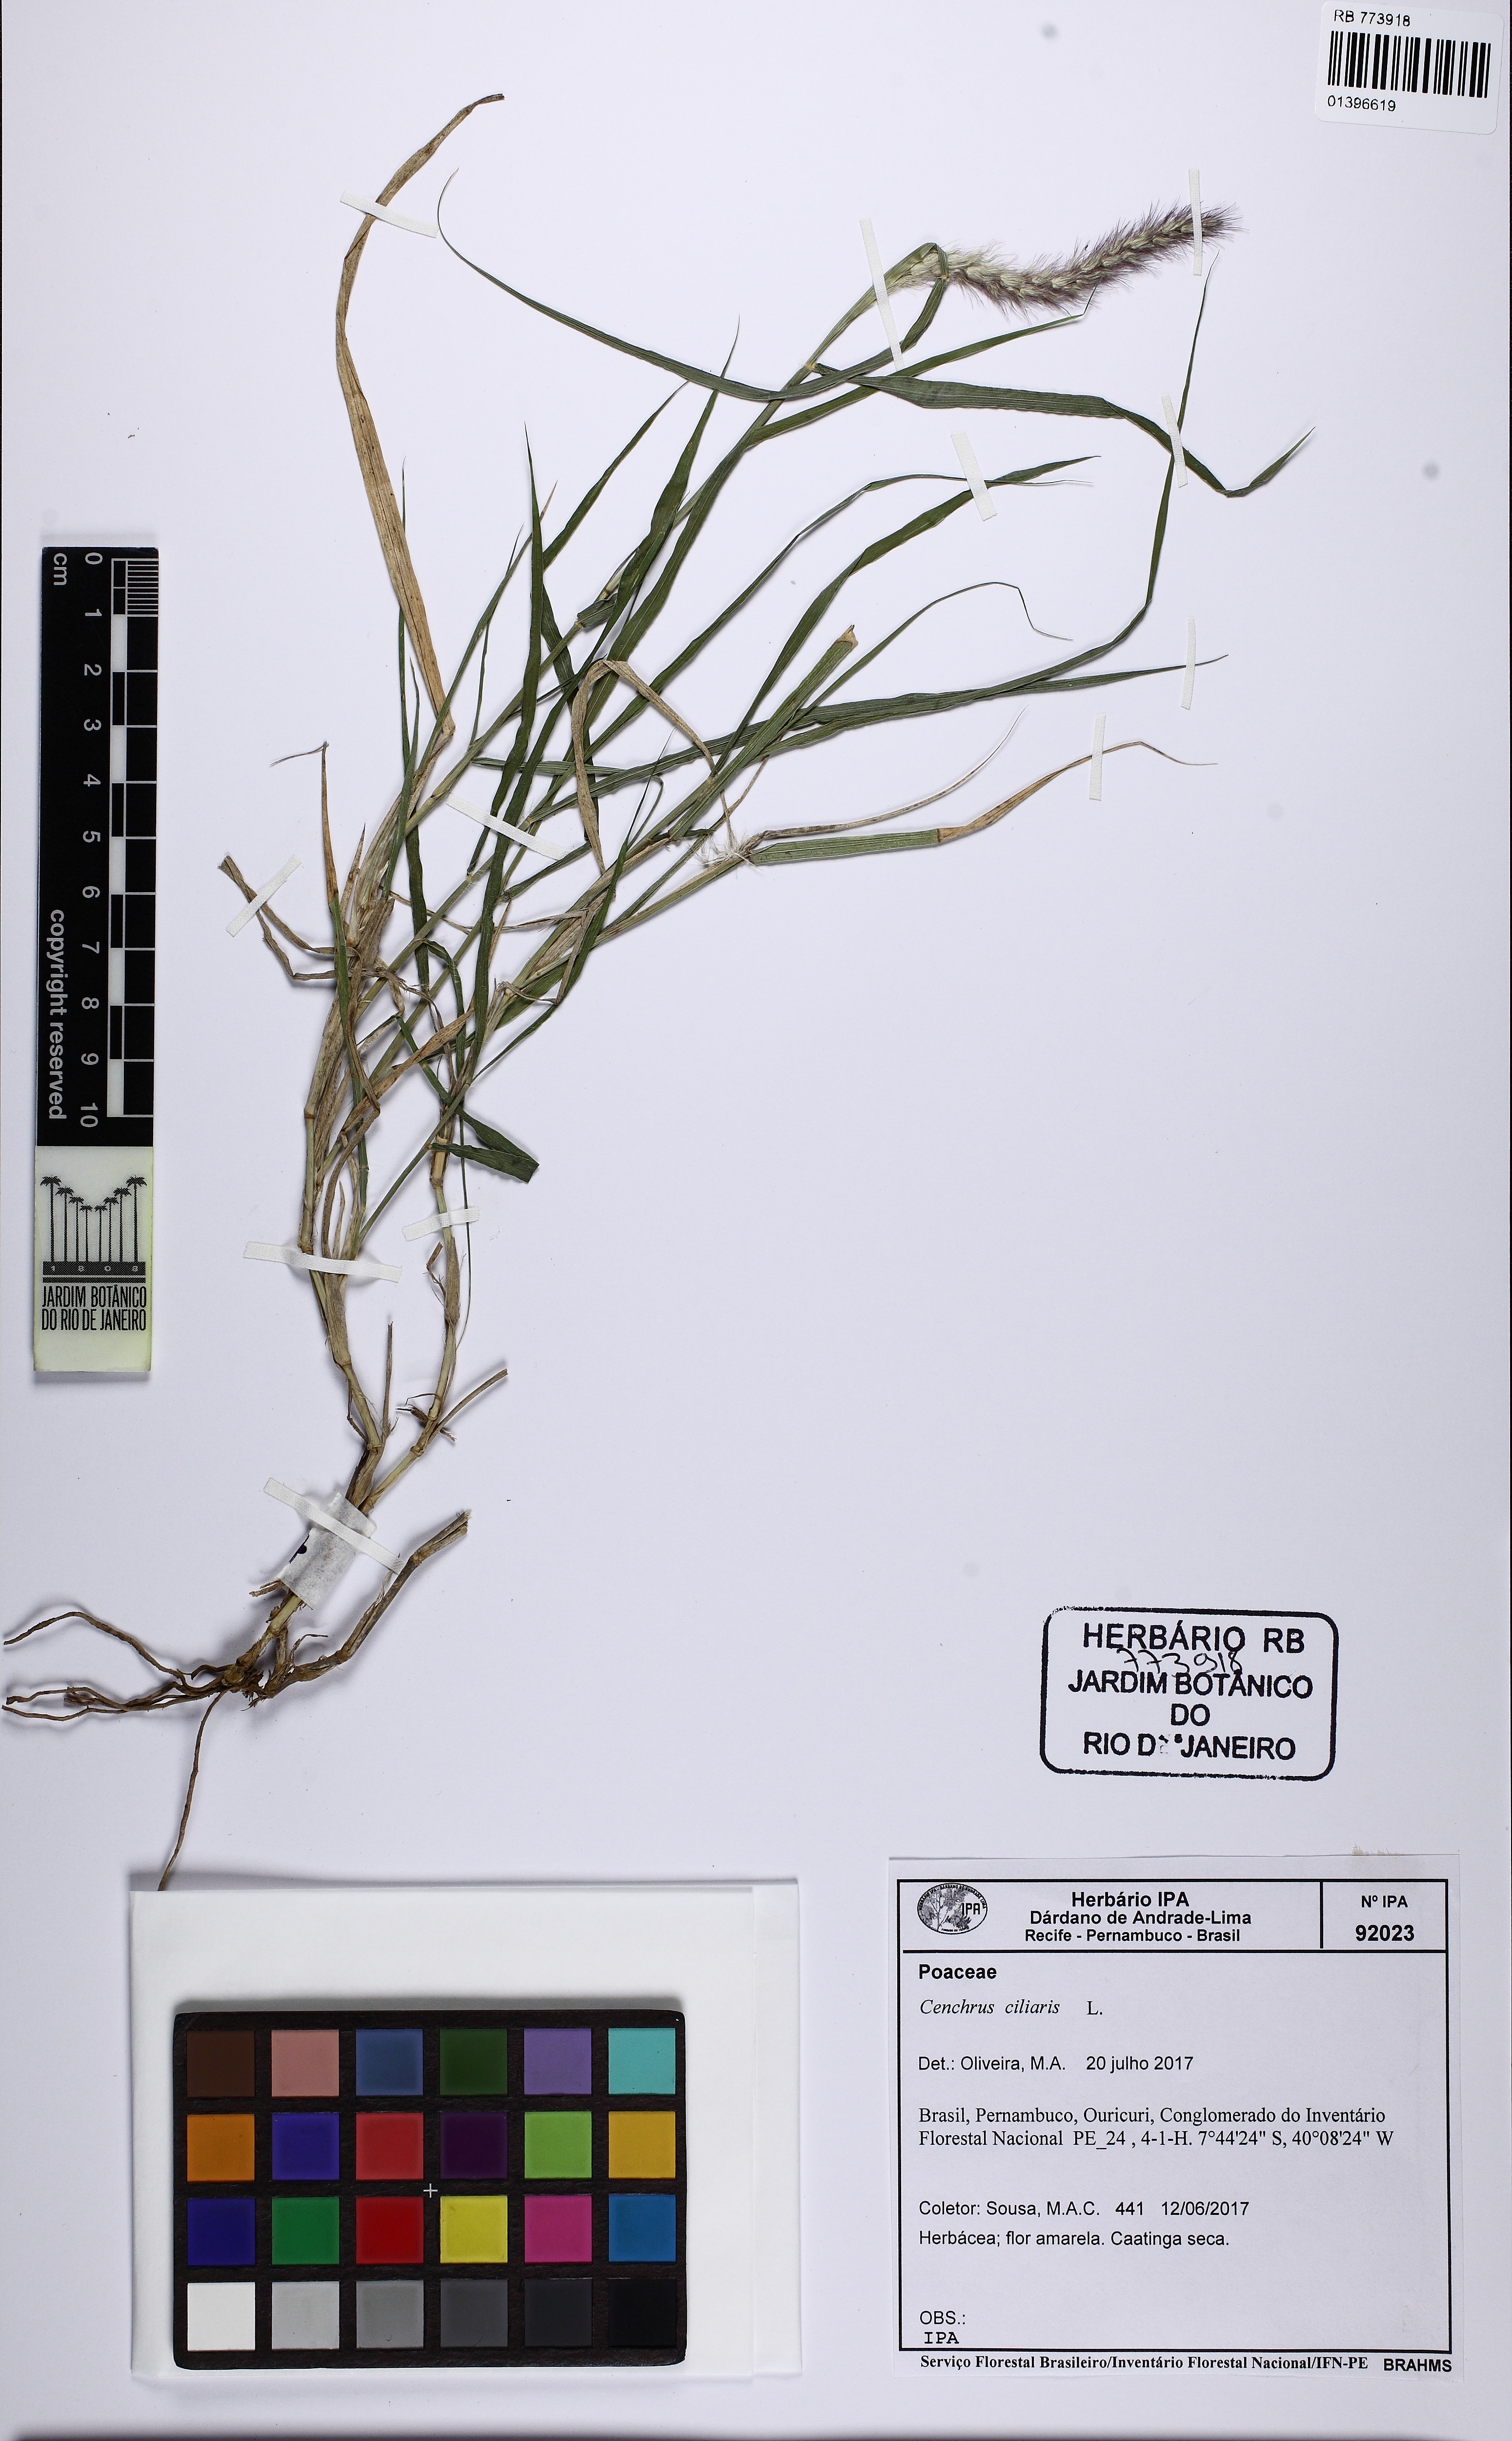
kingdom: Plantae
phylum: Tracheophyta
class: Liliopsida
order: Poales
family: Poaceae
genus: Cenchrus
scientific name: Cenchrus ciliaris
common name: Buffelgrass
